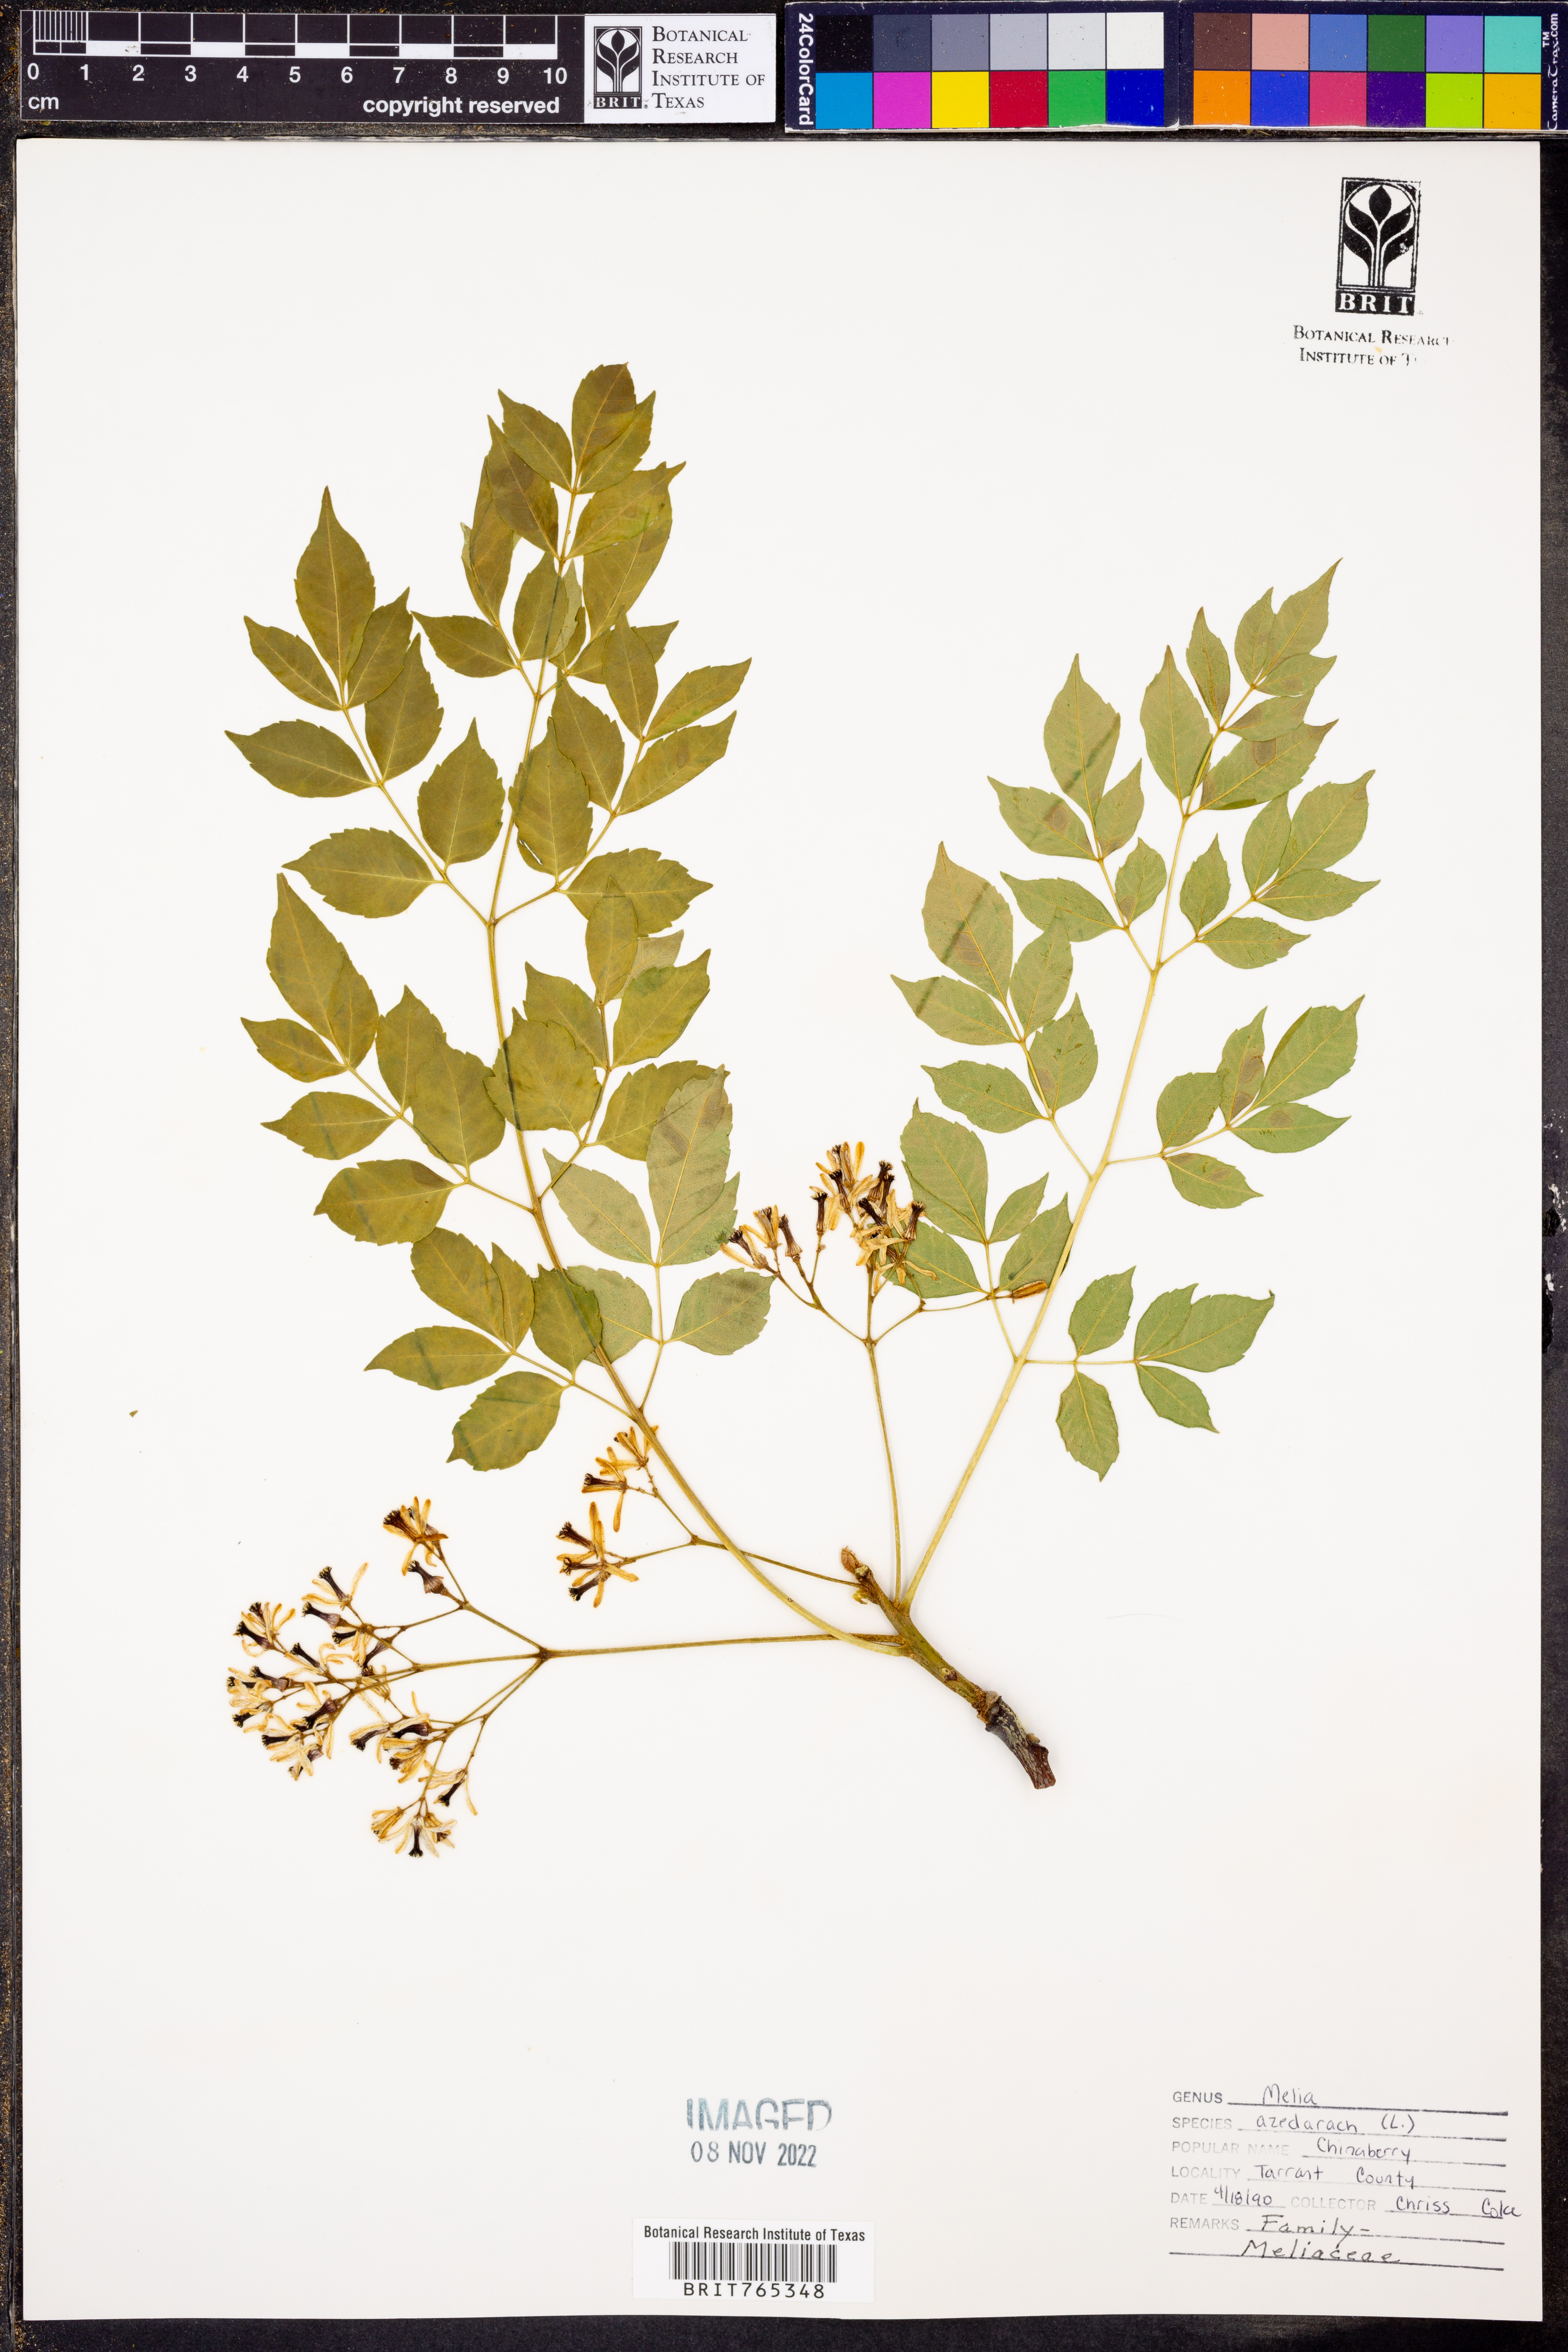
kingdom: Plantae
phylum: Tracheophyta
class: Magnoliopsida
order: Sapindales
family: Meliaceae
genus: Melia
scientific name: Melia azedarach
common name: Chinaberrytree
